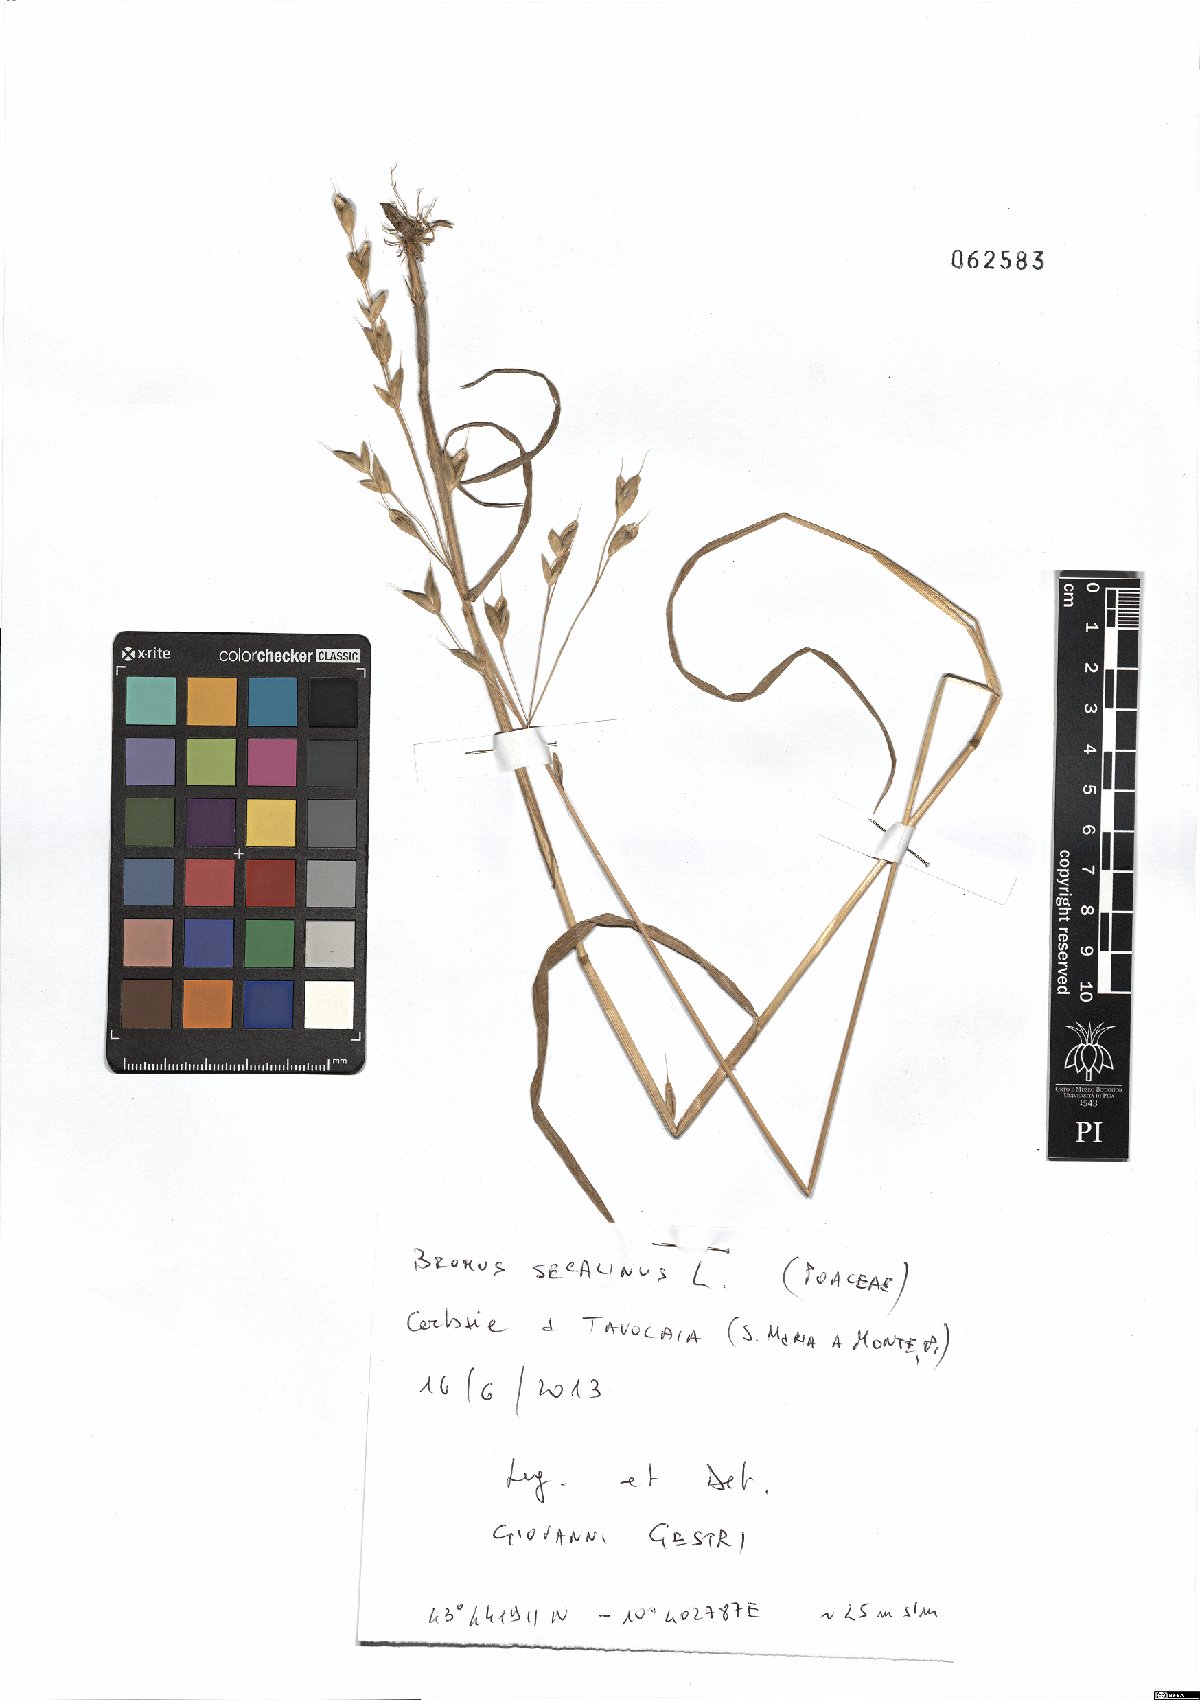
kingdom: Plantae
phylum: Tracheophyta
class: Liliopsida
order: Poales
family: Poaceae
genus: Bromus
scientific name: Bromus secalinus
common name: Rye brome
